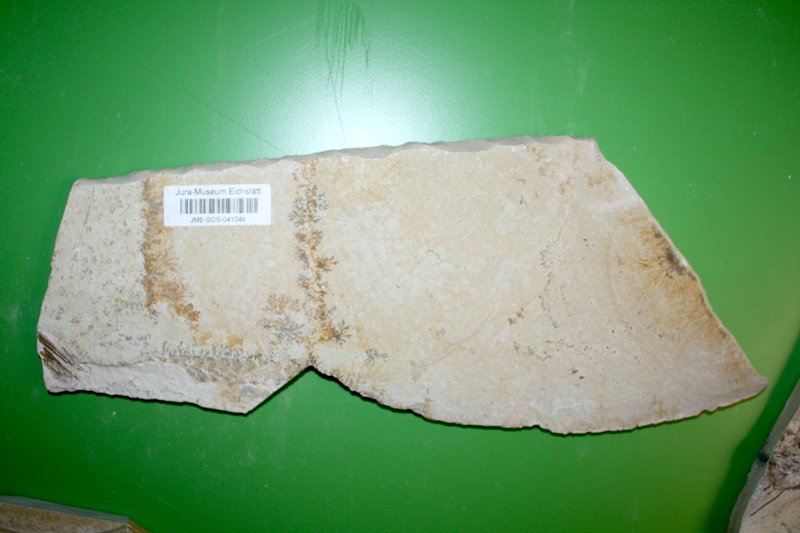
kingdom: Animalia
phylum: Chordata
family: Aspidorhynchidae
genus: Aspidorhynchus
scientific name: Aspidorhynchus acutirostris
